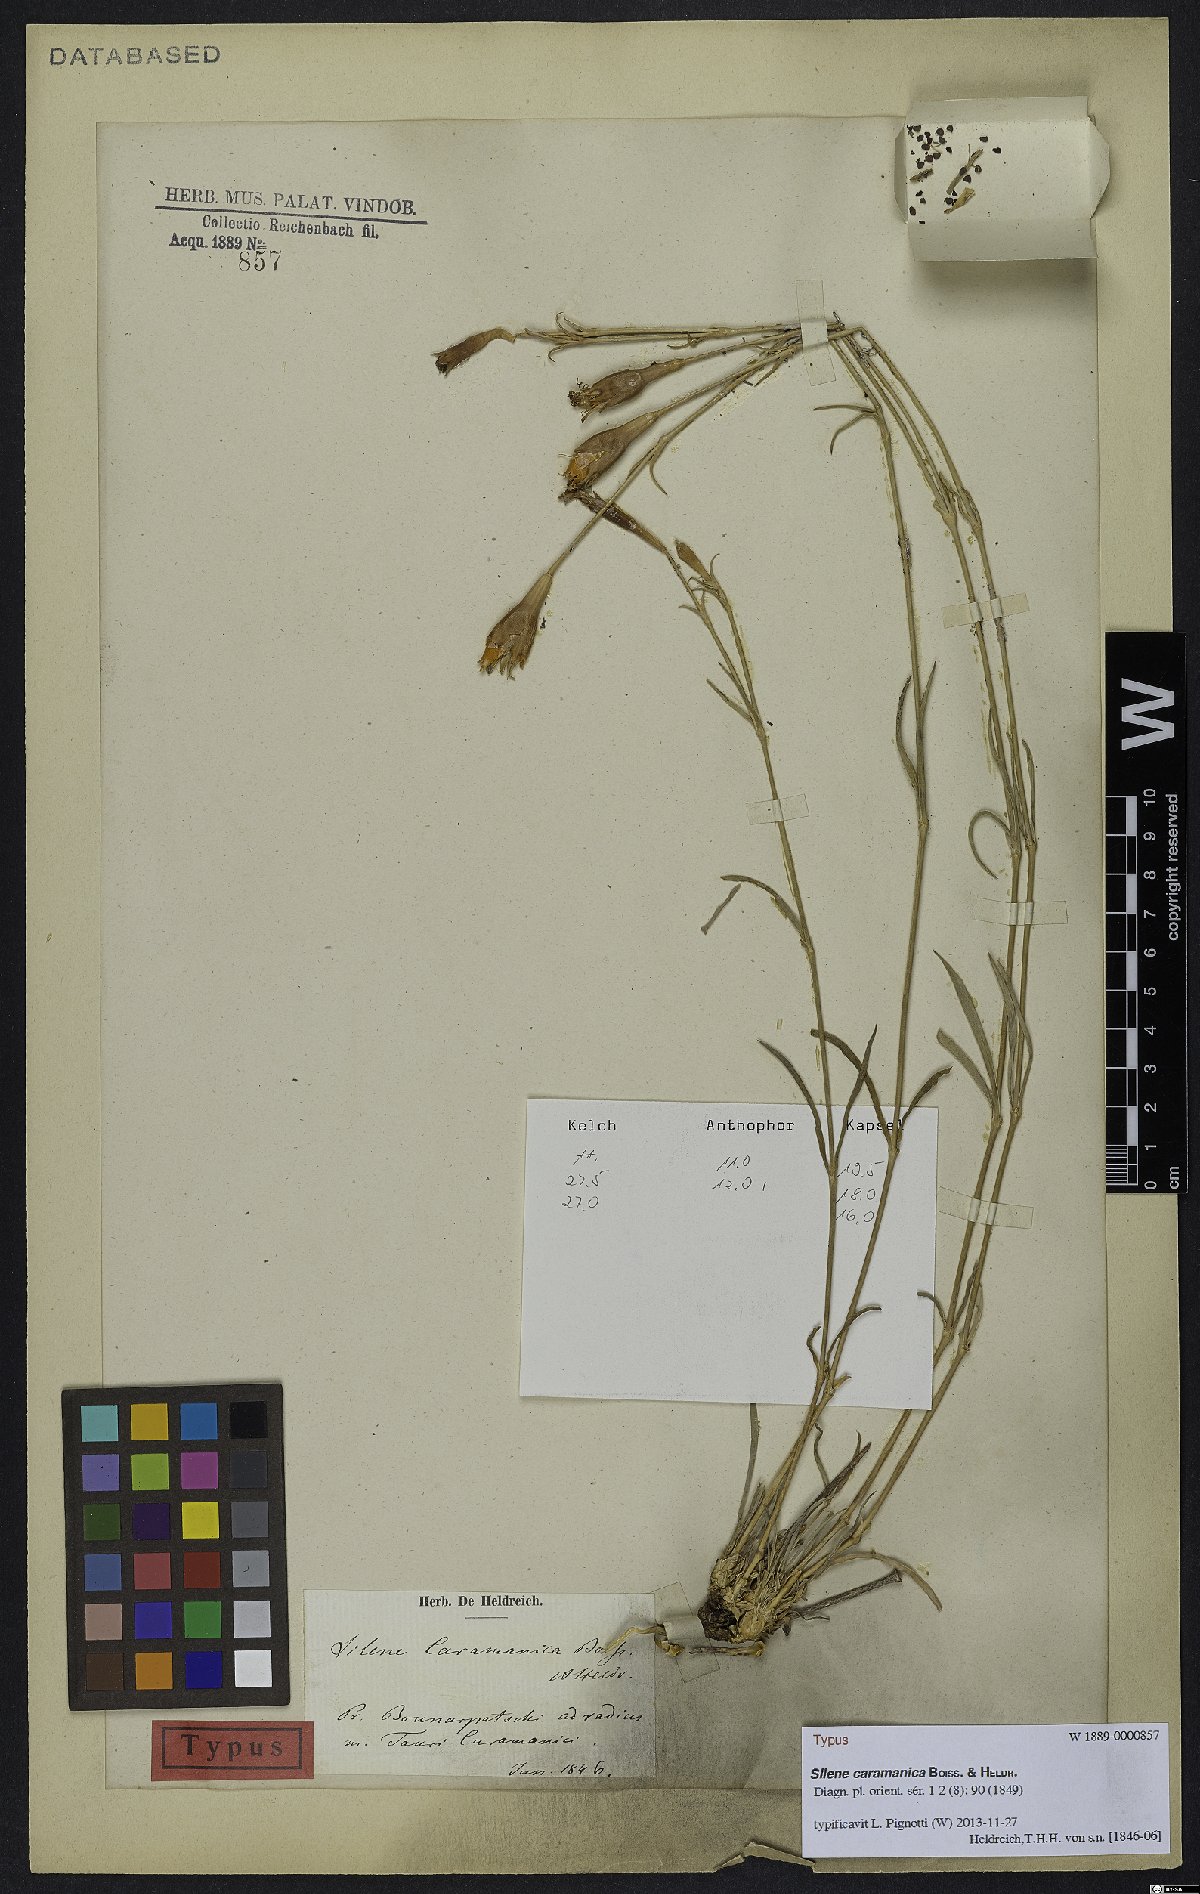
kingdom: Plantae
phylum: Tracheophyta
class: Magnoliopsida
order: Caryophyllales
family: Caryophyllaceae
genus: Silene
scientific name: Silene caramanica
